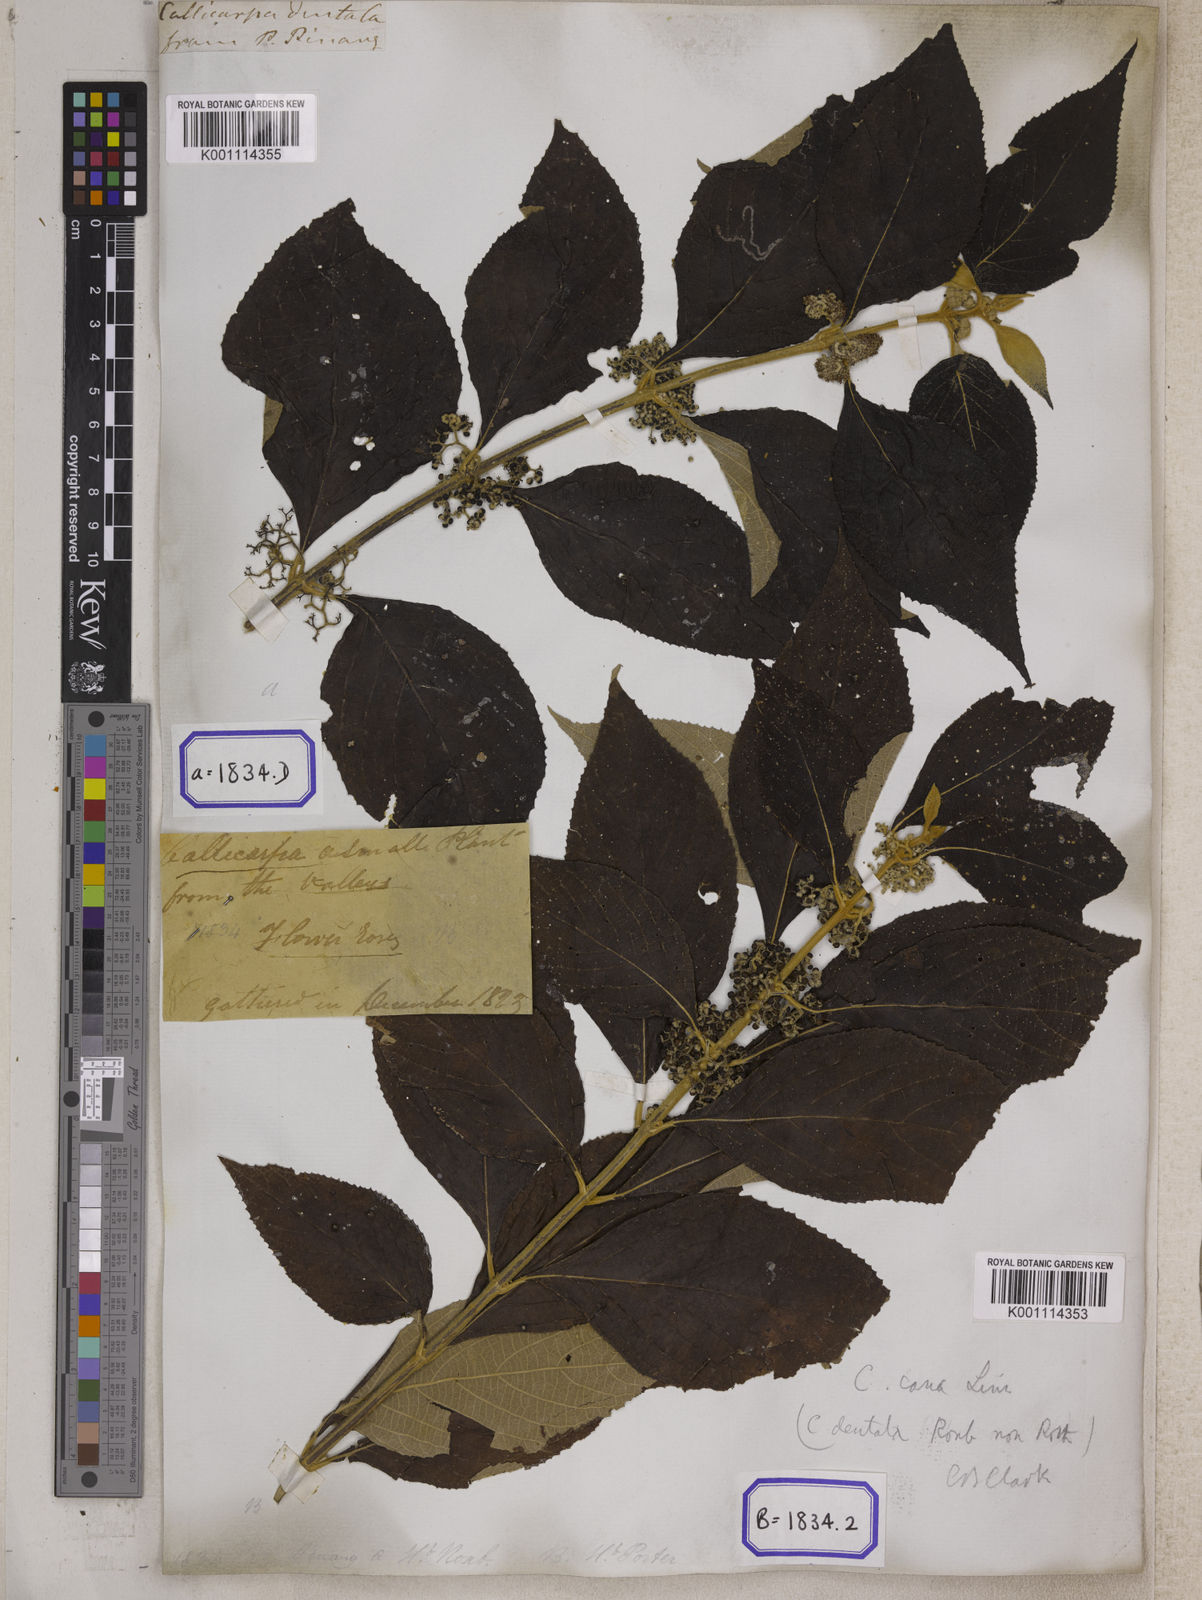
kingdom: Plantae
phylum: Tracheophyta
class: Magnoliopsida
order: Lamiales
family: Lamiaceae
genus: Callicarpa
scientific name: Callicarpa candicans
